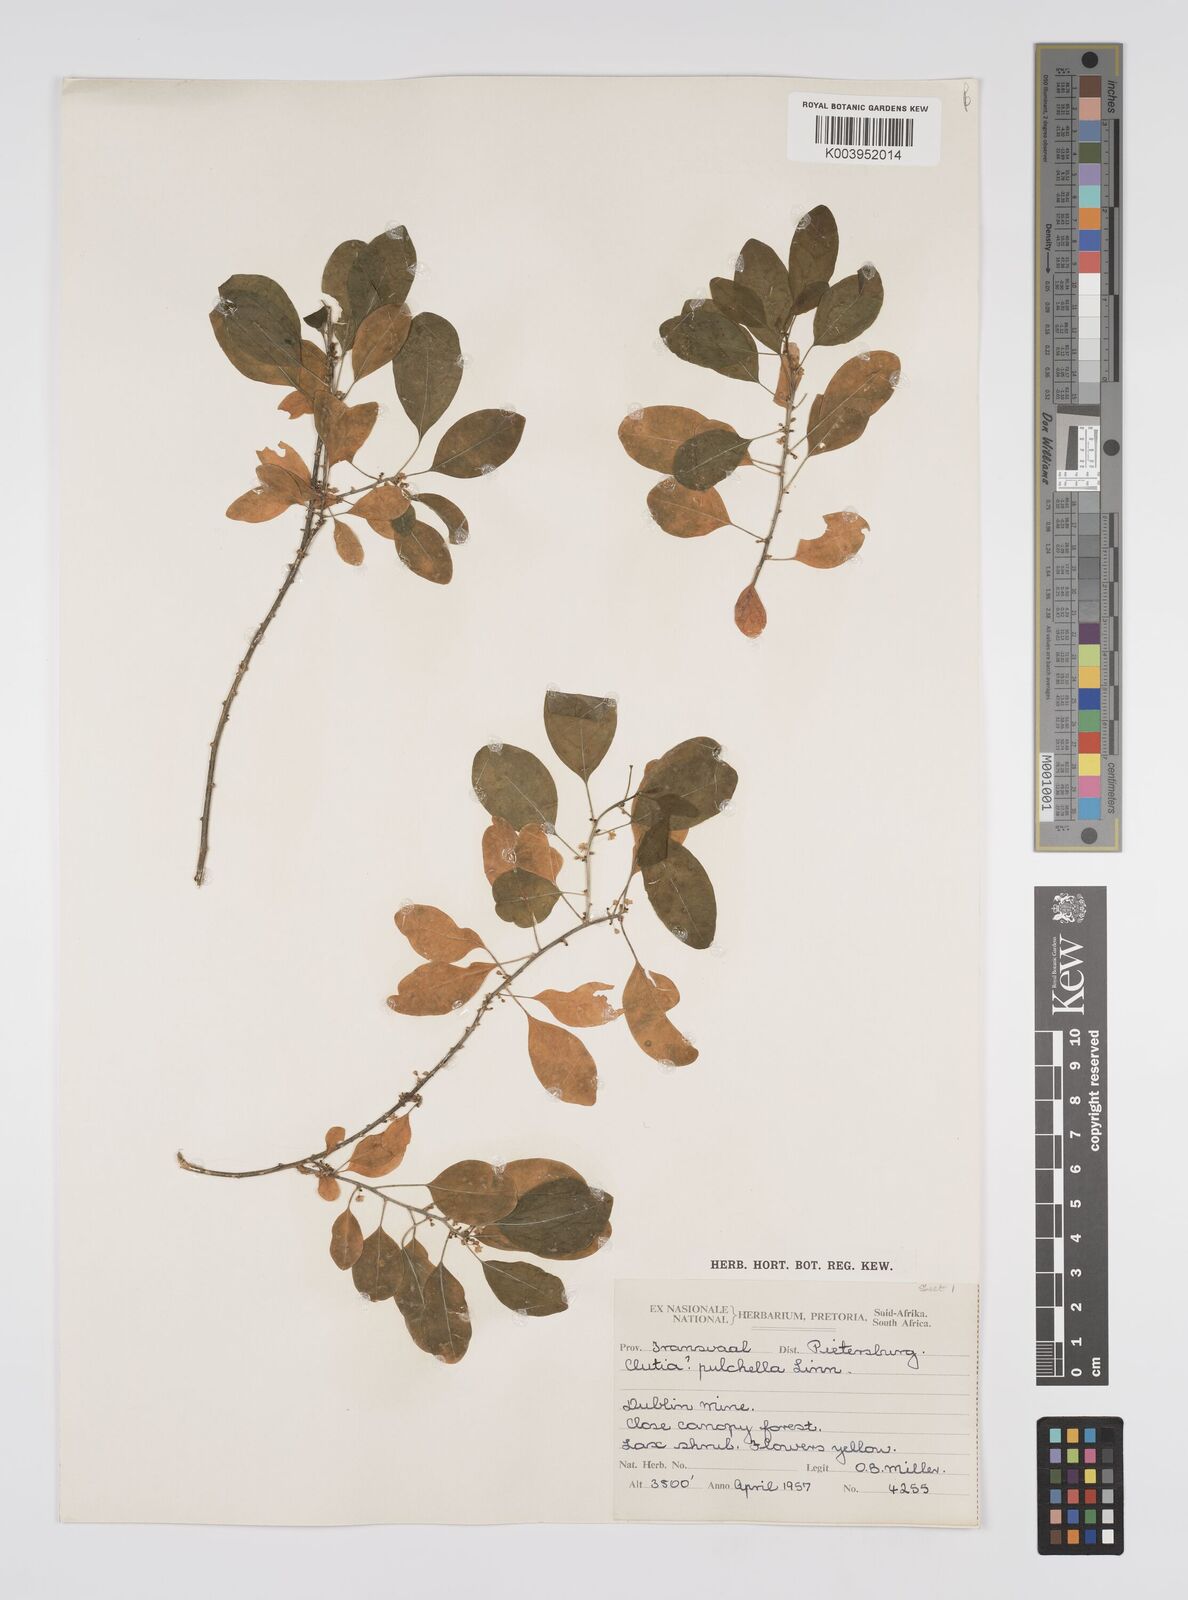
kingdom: Plantae
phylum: Tracheophyta
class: Magnoliopsida
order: Malpighiales
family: Peraceae
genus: Clutia
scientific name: Clutia pulchella
